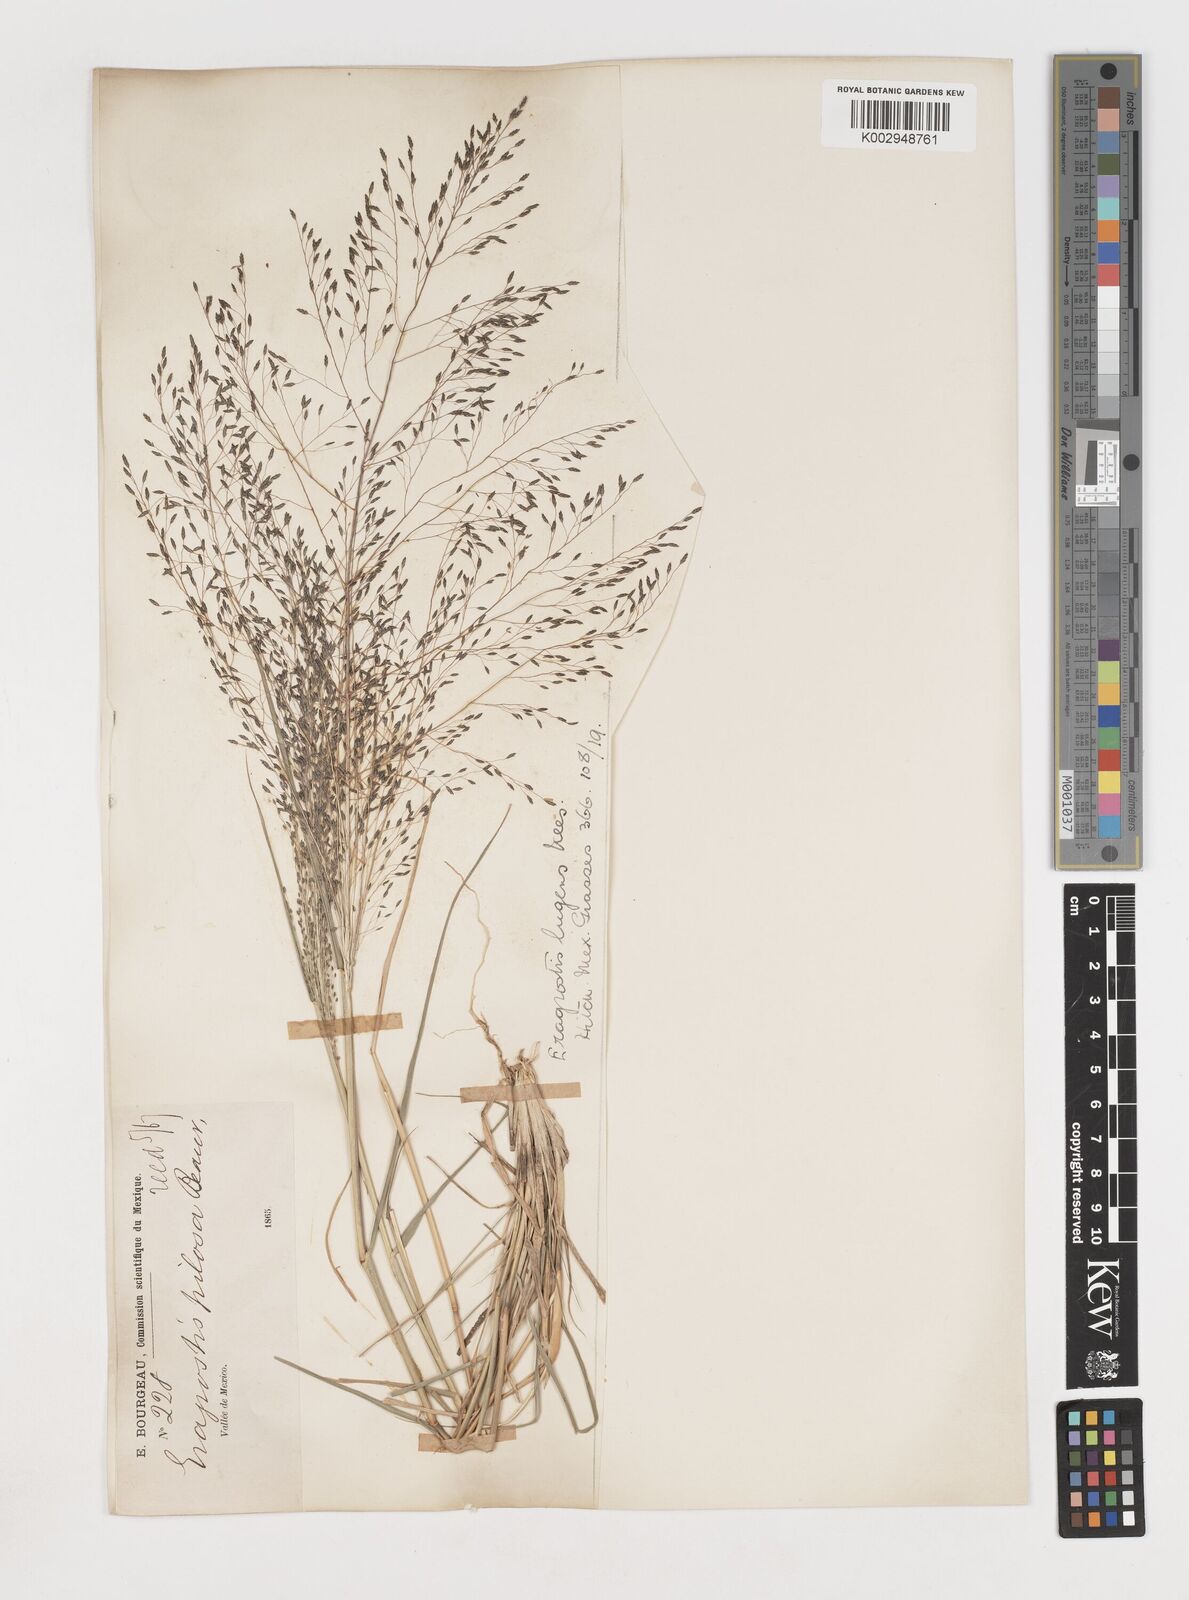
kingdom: Plantae
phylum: Tracheophyta
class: Liliopsida
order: Poales
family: Poaceae
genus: Eragrostis
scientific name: Eragrostis
